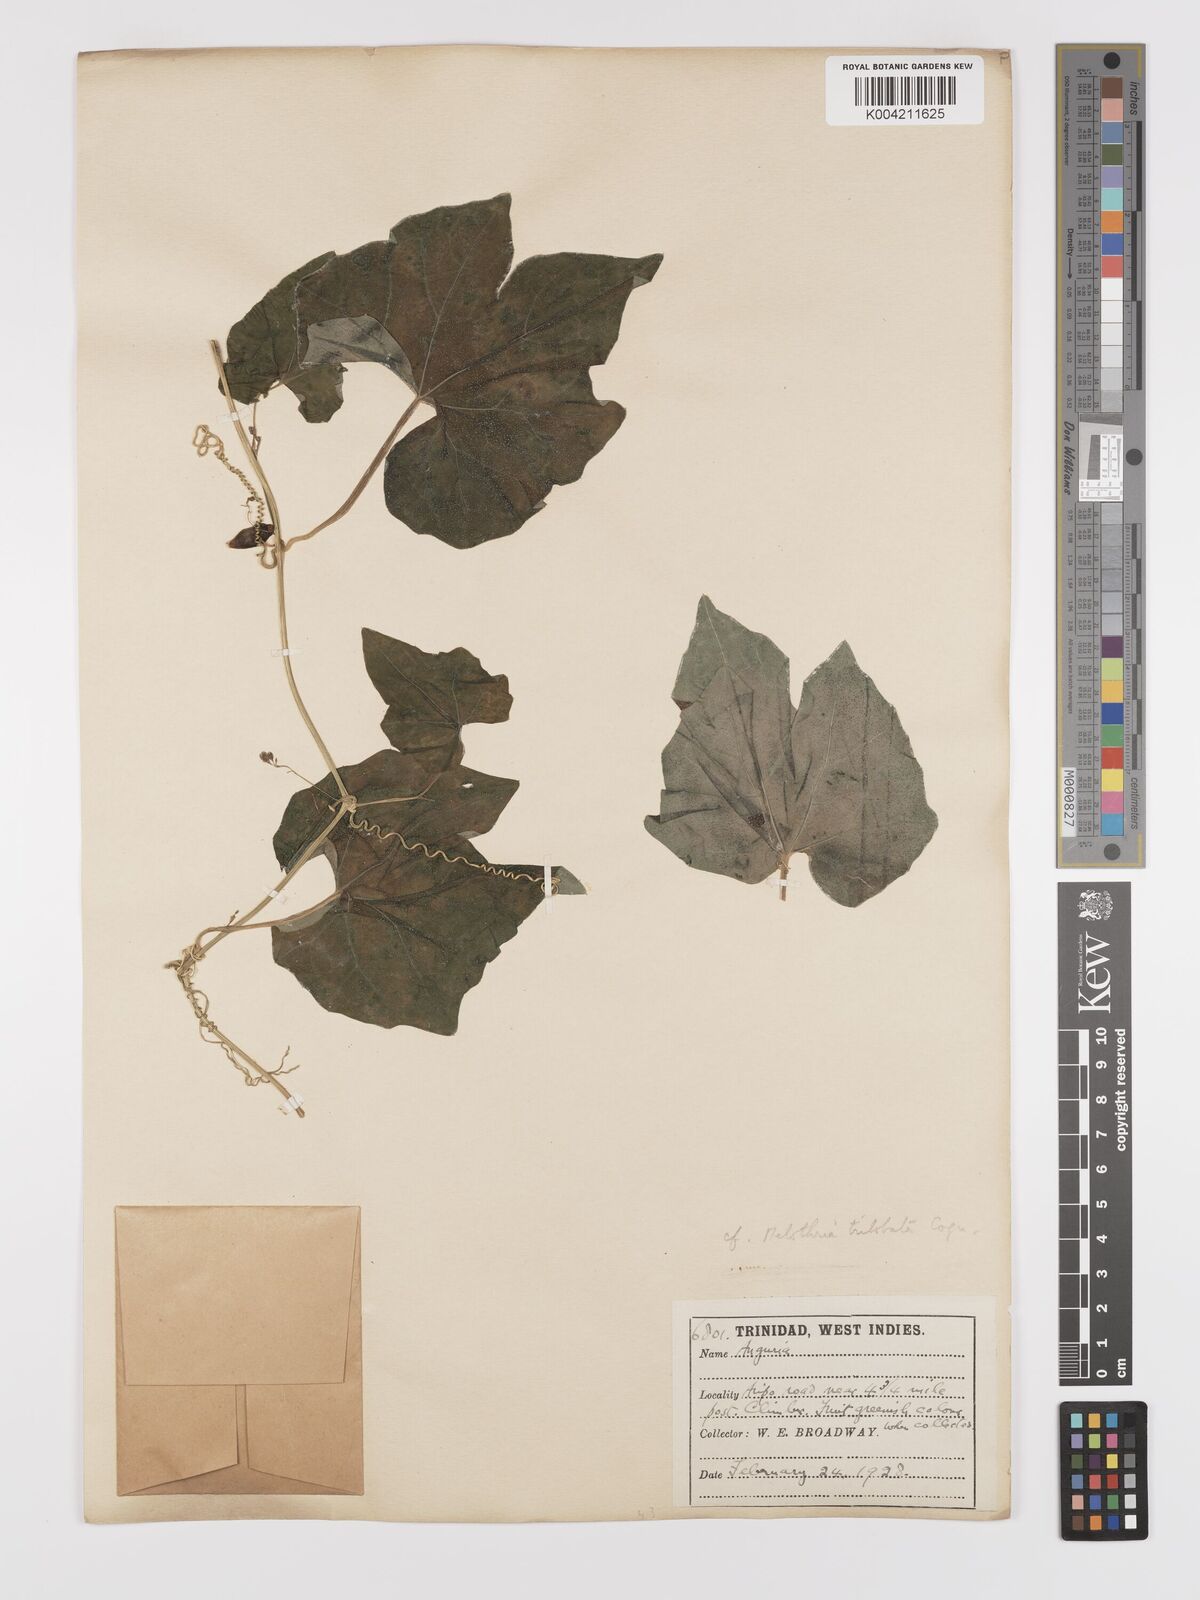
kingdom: Plantae
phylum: Tracheophyta
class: Magnoliopsida
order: Cucurbitales
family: Cucurbitaceae
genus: Melothria
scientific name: Melothria trilobata
